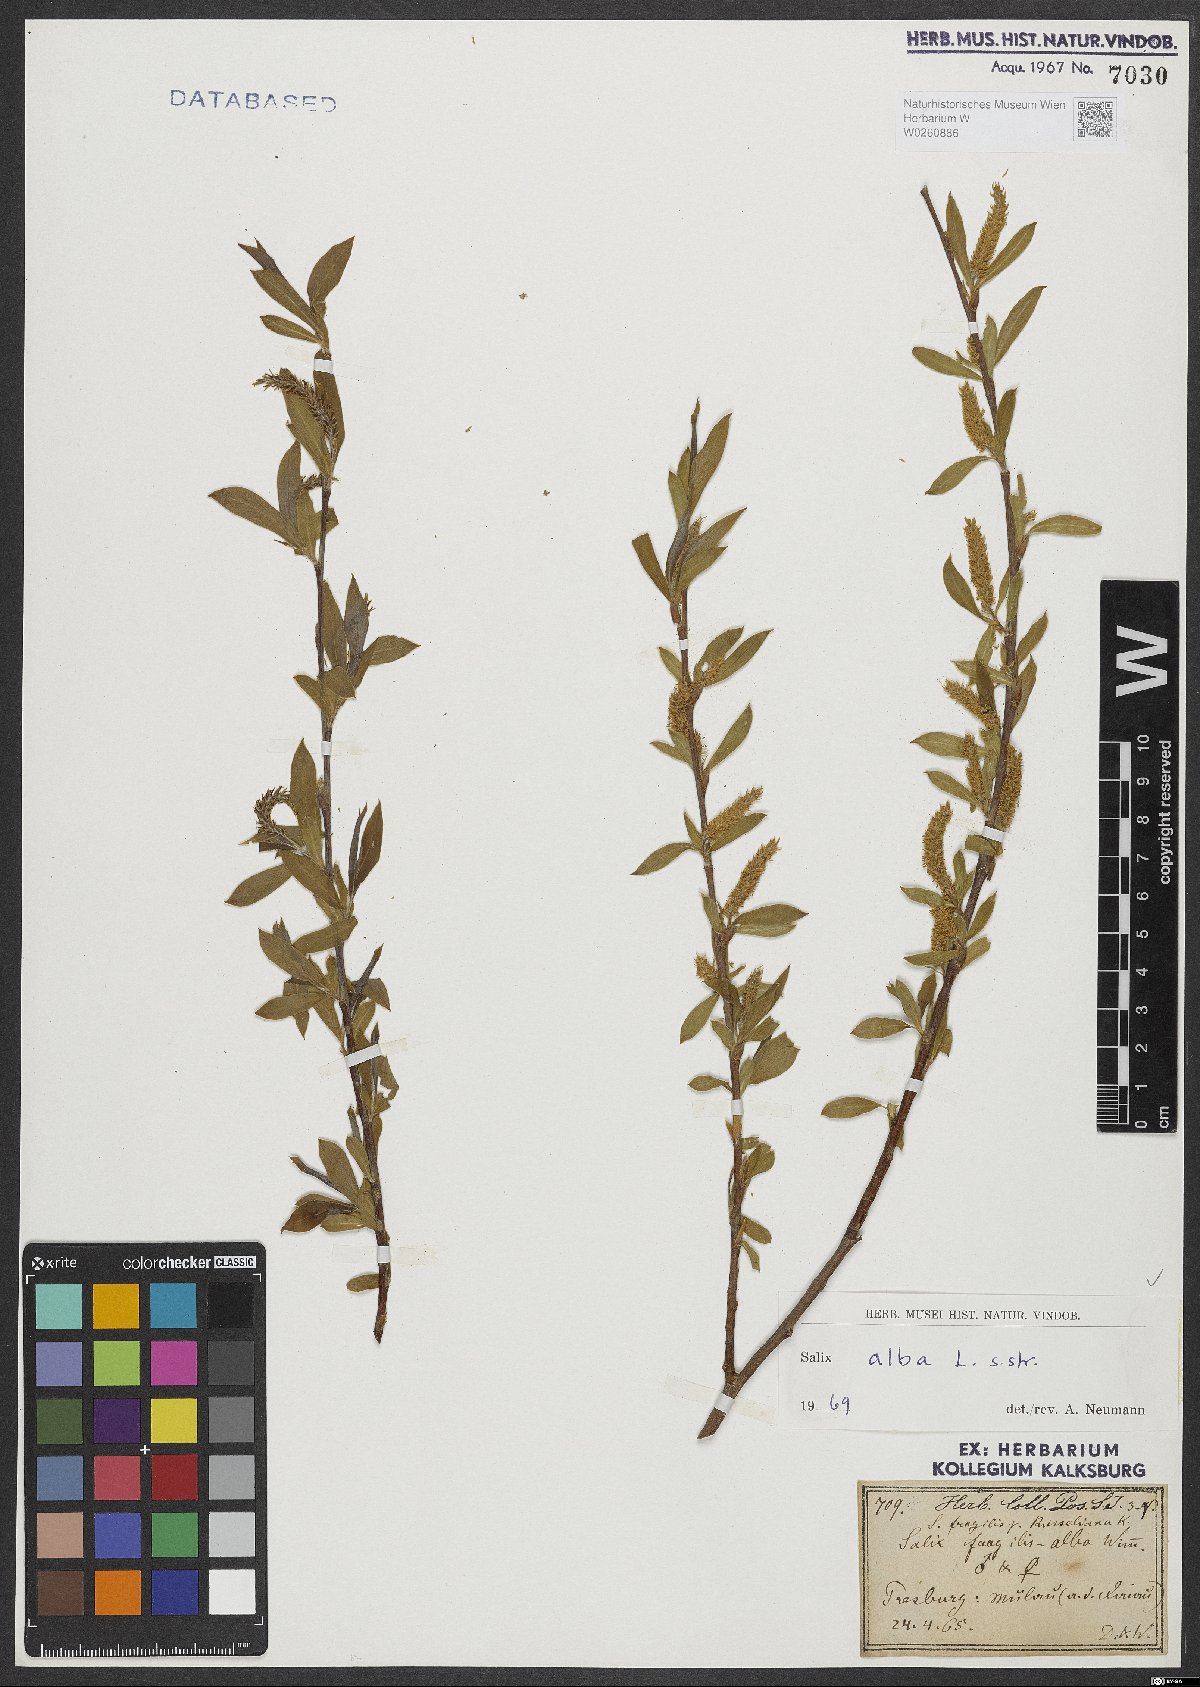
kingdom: Plantae
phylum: Tracheophyta
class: Magnoliopsida
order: Malpighiales
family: Salicaceae
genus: Salix
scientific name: Salix alba
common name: White willow
